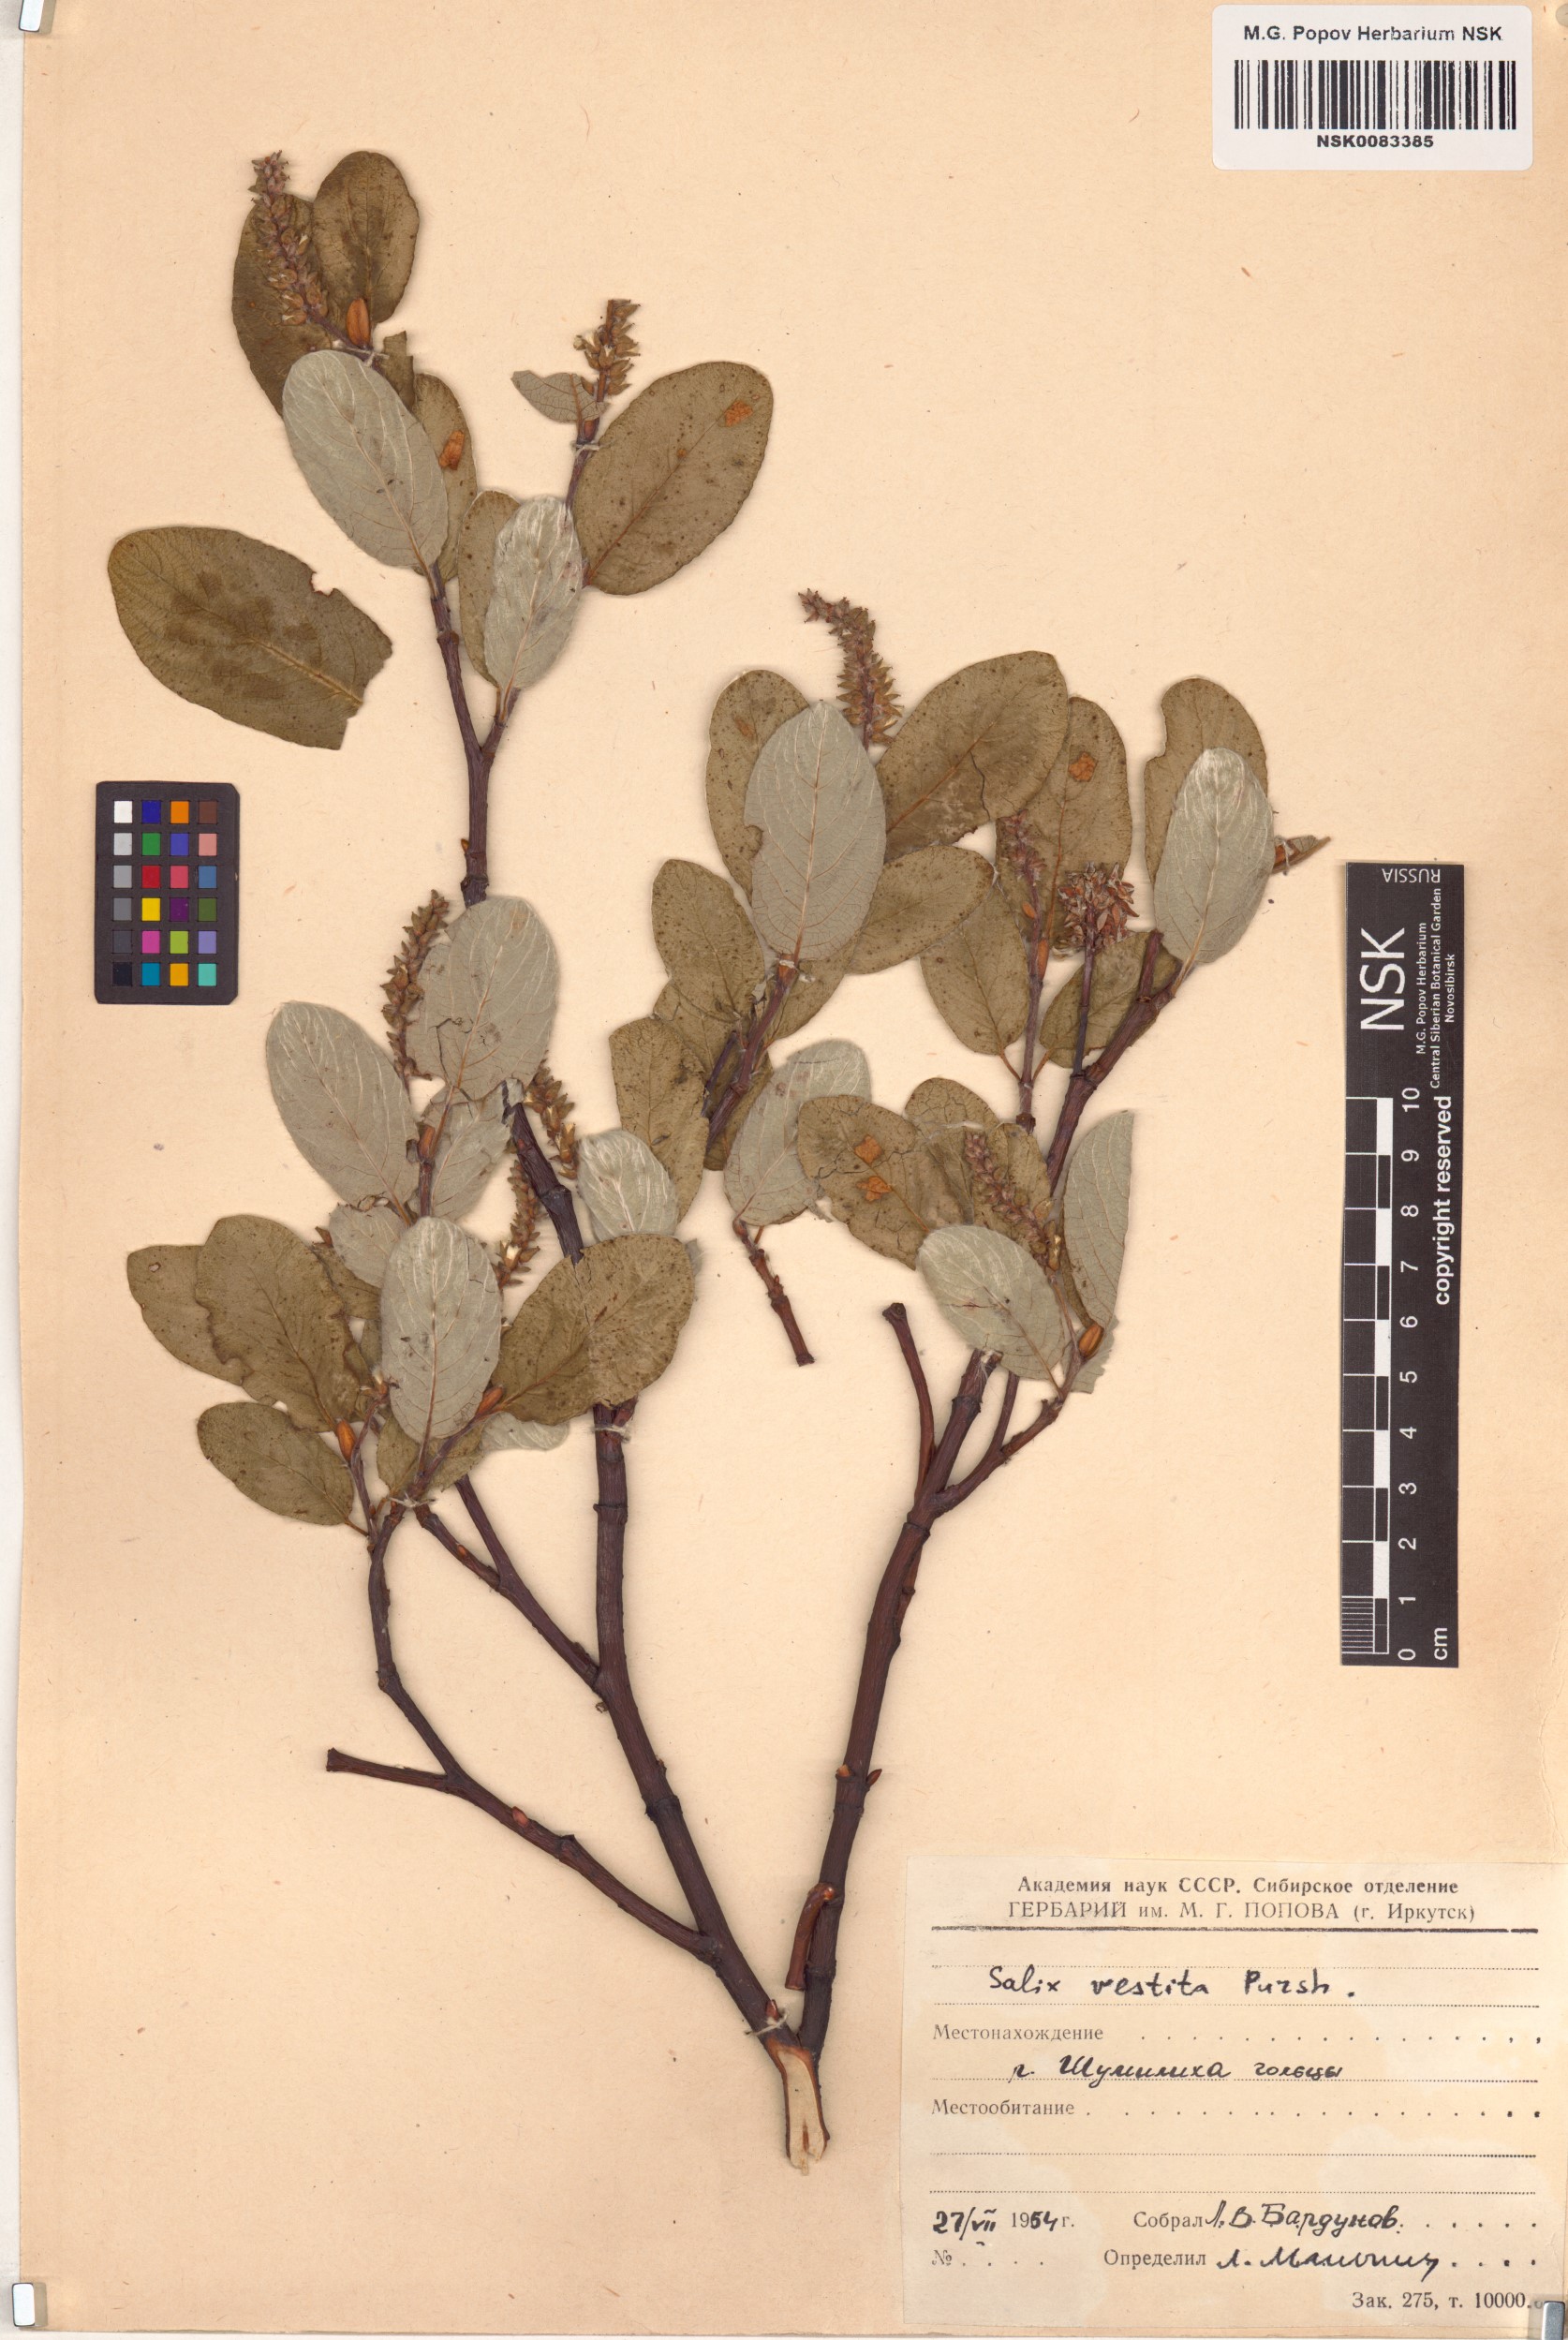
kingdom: Plantae
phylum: Tracheophyta
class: Magnoliopsida
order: Malpighiales
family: Salicaceae
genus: Salix
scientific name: Salix vestita
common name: Hairy willow
